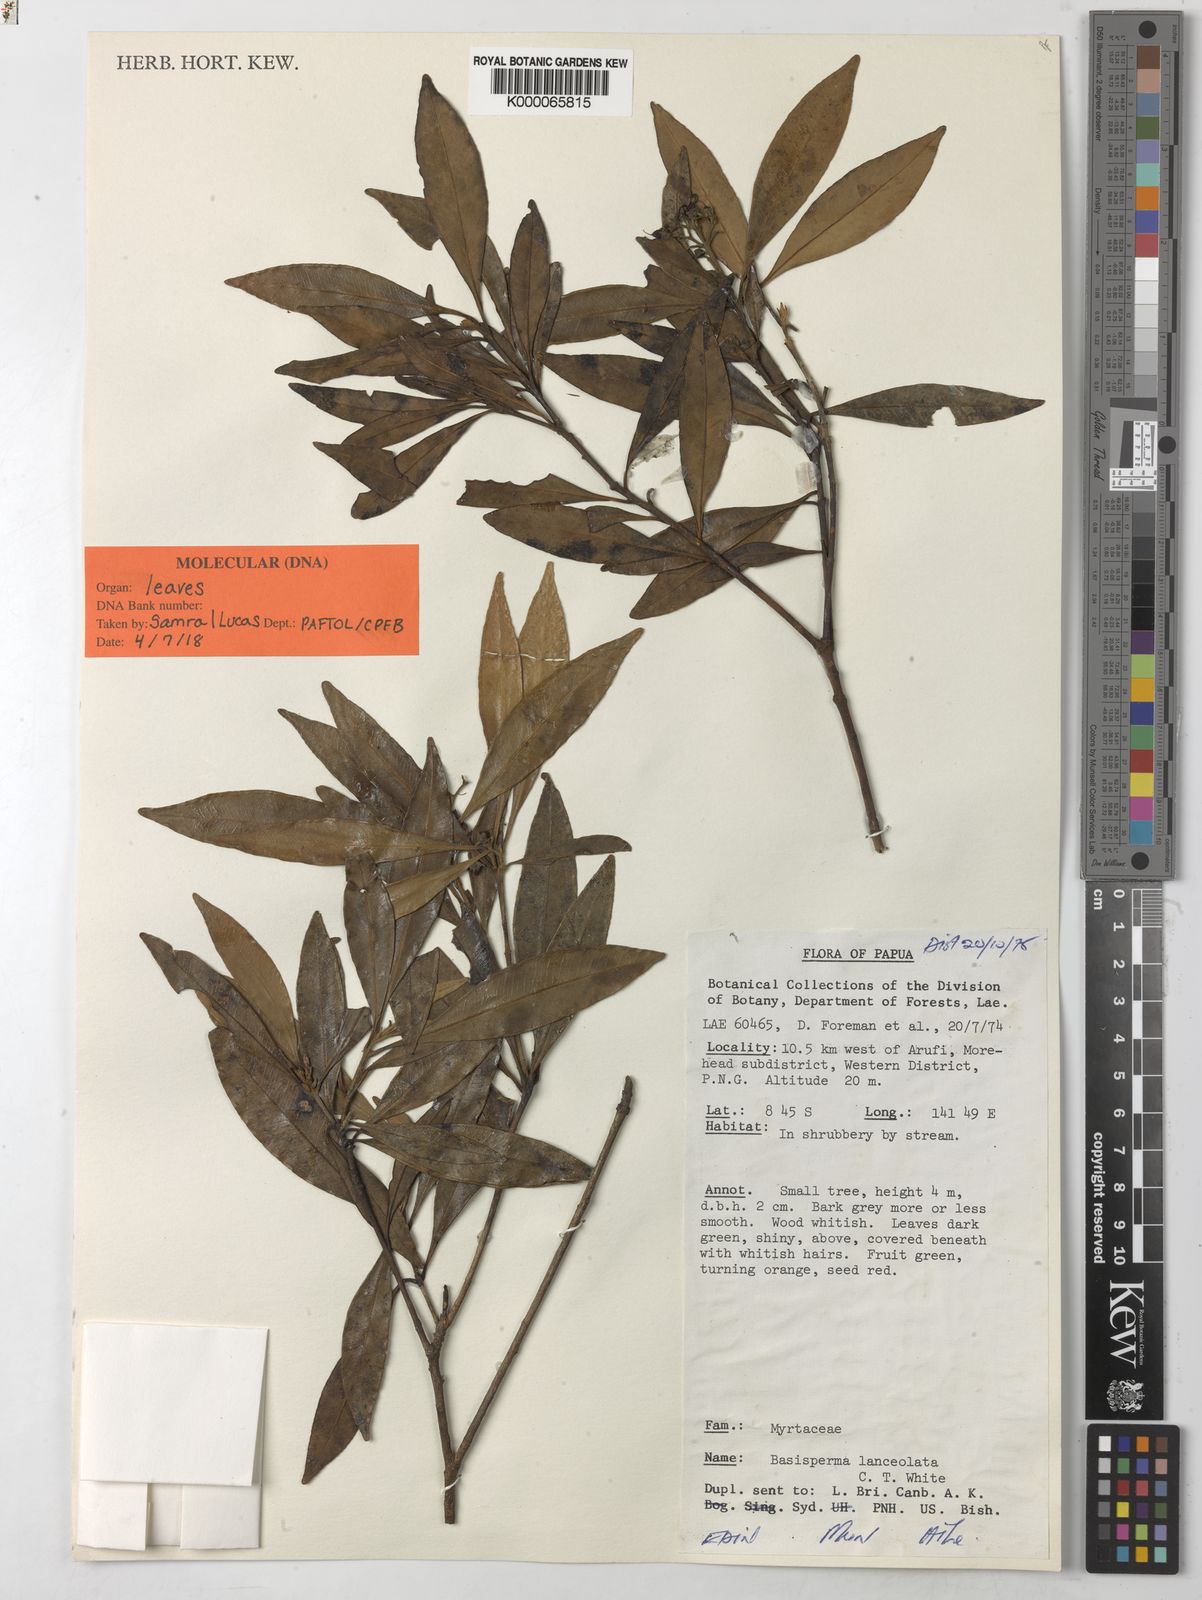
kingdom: Plantae
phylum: Tracheophyta
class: Magnoliopsida
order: Myrtales
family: Myrtaceae
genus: Basisperma
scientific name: Basisperma lanceolata
